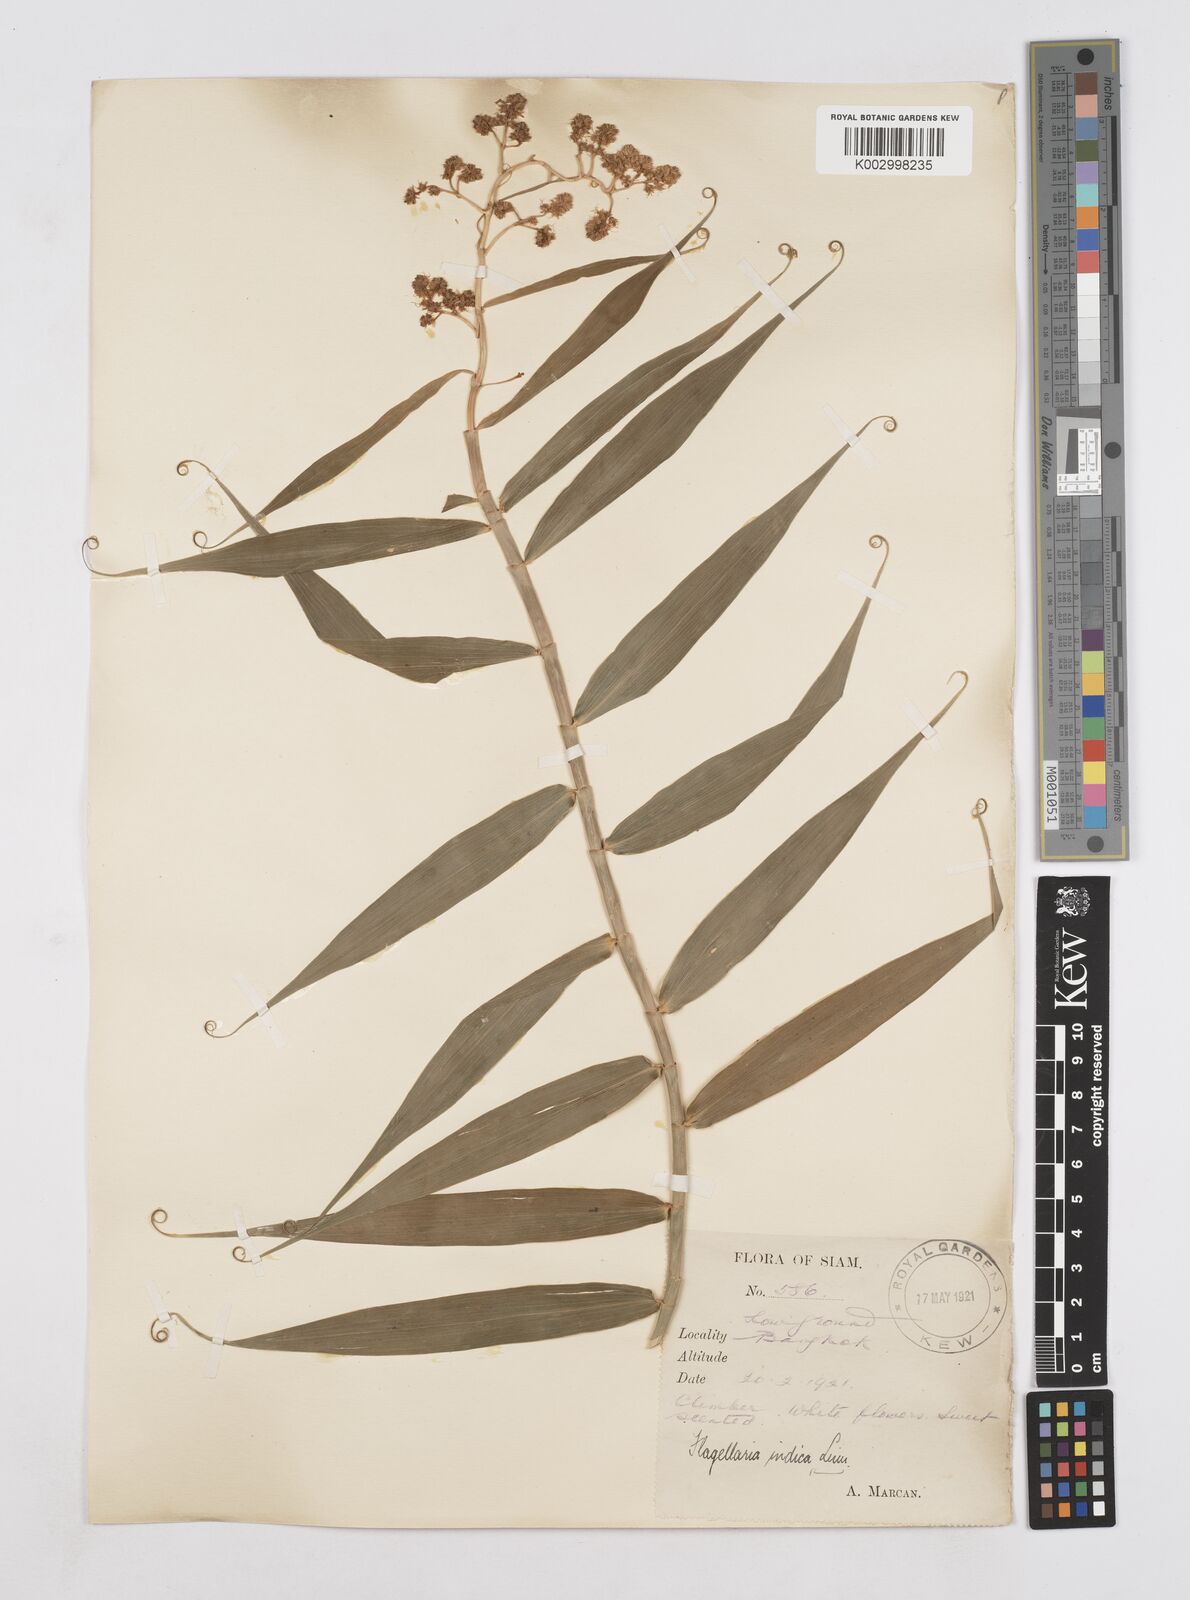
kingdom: Plantae
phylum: Tracheophyta
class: Liliopsida
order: Poales
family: Flagellariaceae
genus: Flagellaria
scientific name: Flagellaria indica
